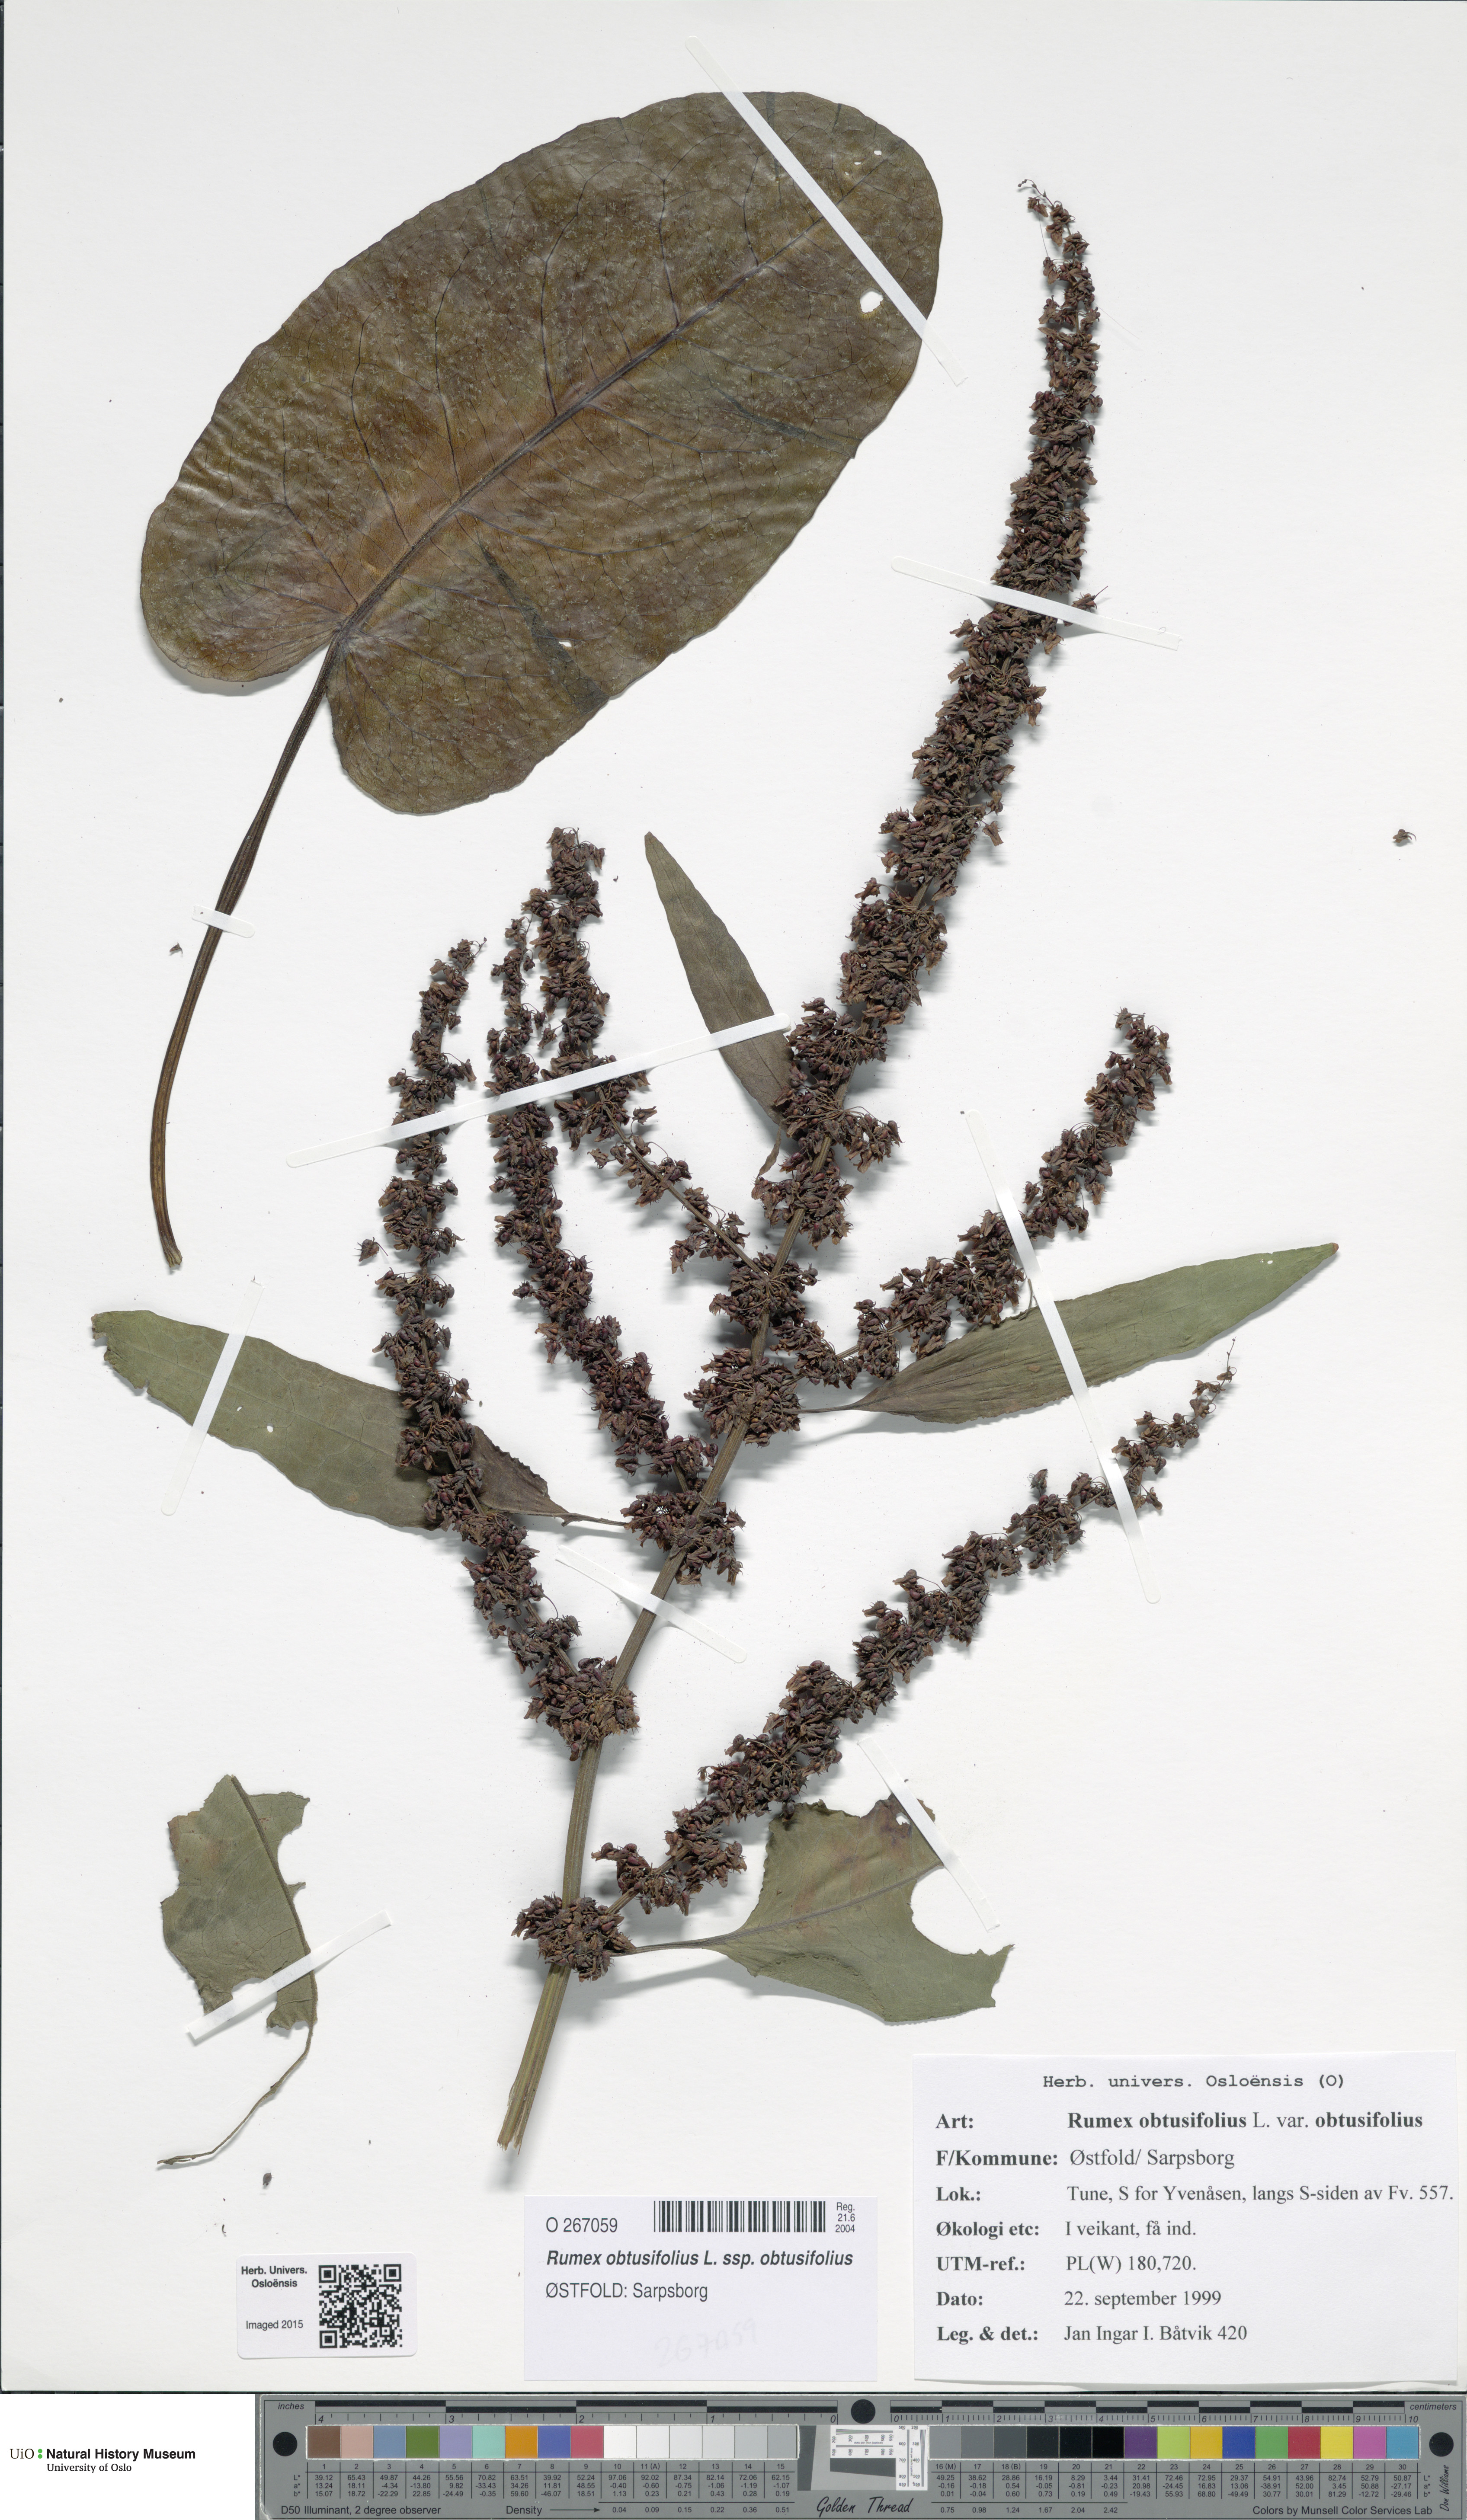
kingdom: Plantae
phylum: Tracheophyta
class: Magnoliopsida
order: Caryophyllales
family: Polygonaceae
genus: Rumex
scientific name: Rumex obtusifolius
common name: Bitter dock
